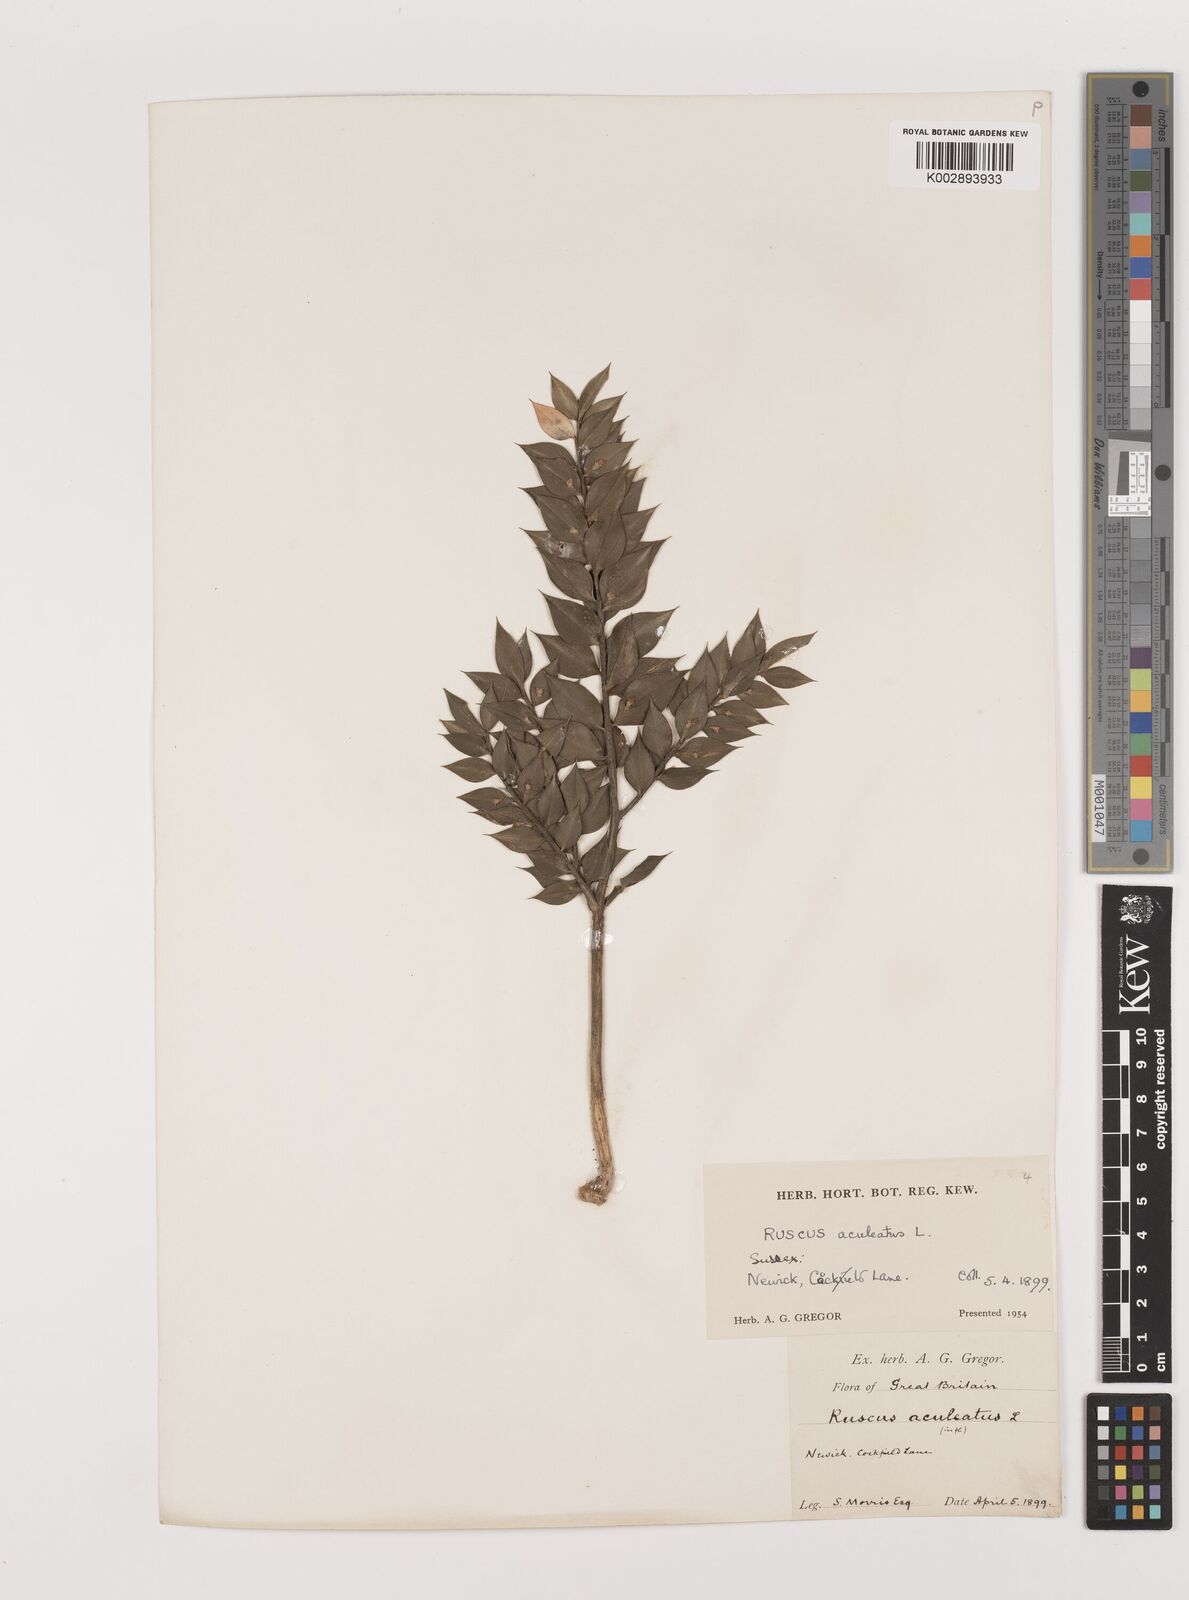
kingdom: Plantae
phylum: Tracheophyta
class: Liliopsida
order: Asparagales
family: Asparagaceae
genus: Ruscus
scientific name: Ruscus aculeatus
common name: Butcher's-broom
